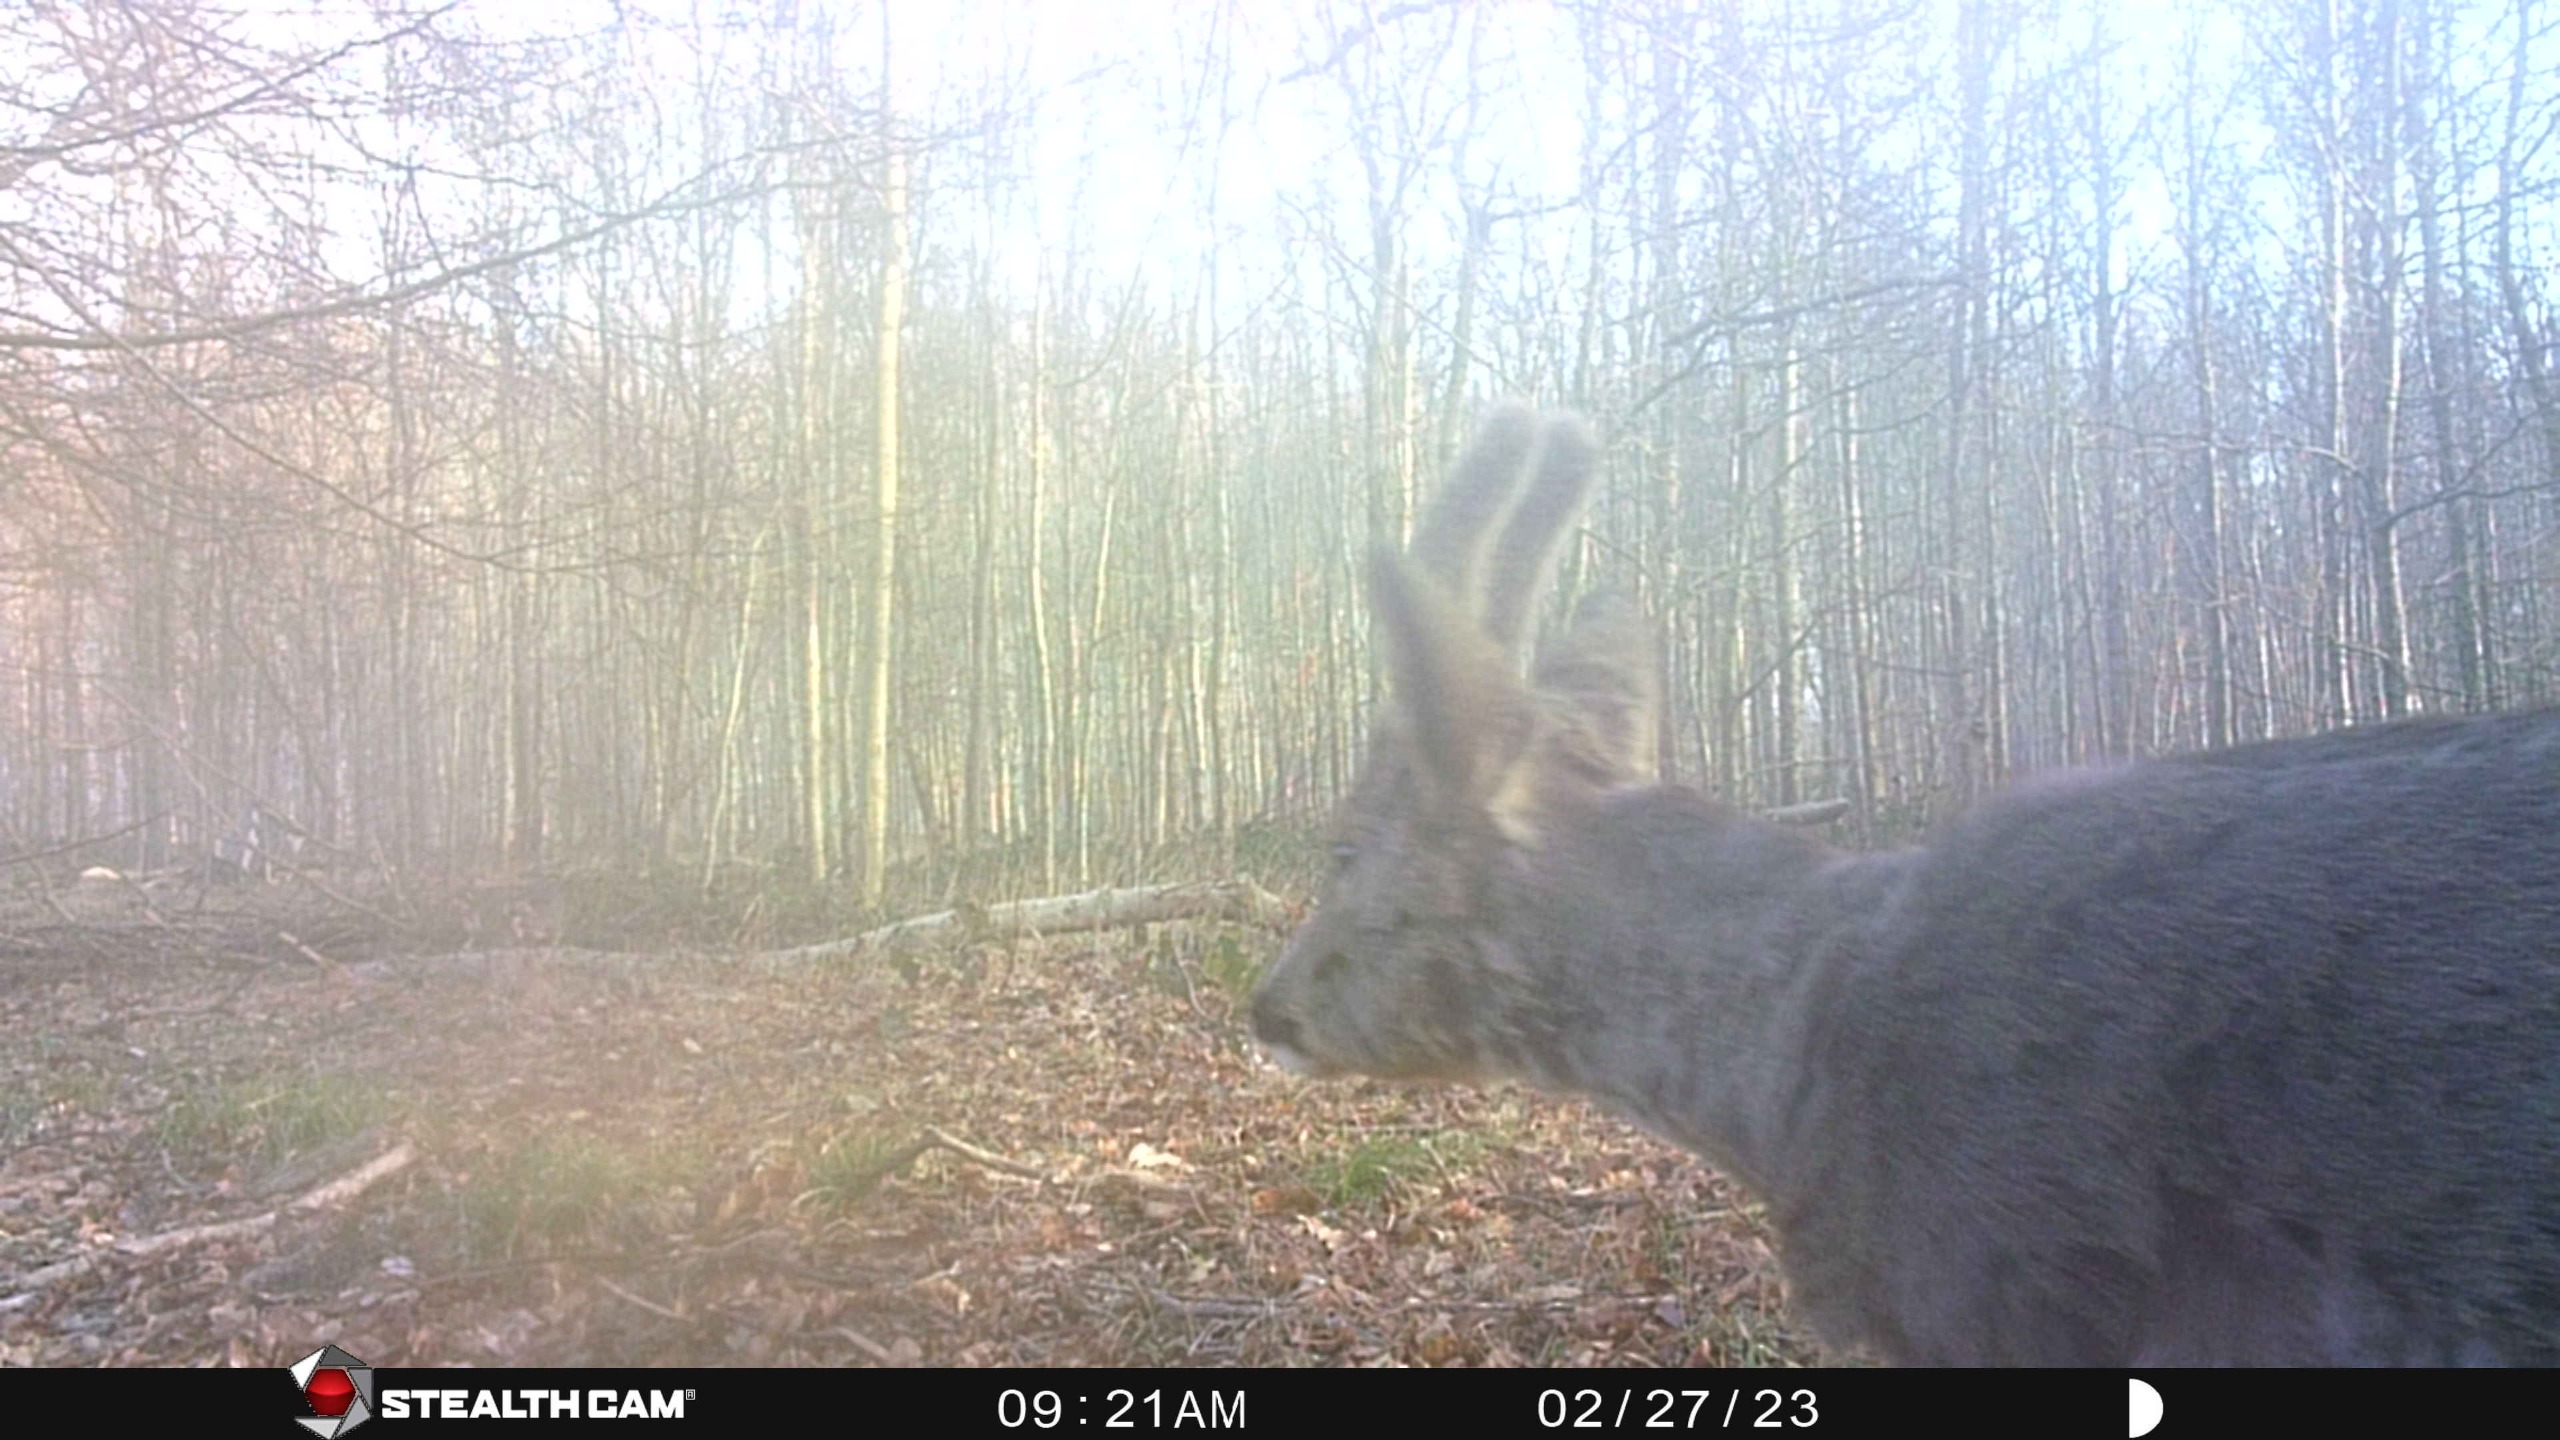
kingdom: Animalia
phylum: Chordata
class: Mammalia
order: Artiodactyla
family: Cervidae
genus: Capreolus
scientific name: Capreolus capreolus
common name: Rådyr
